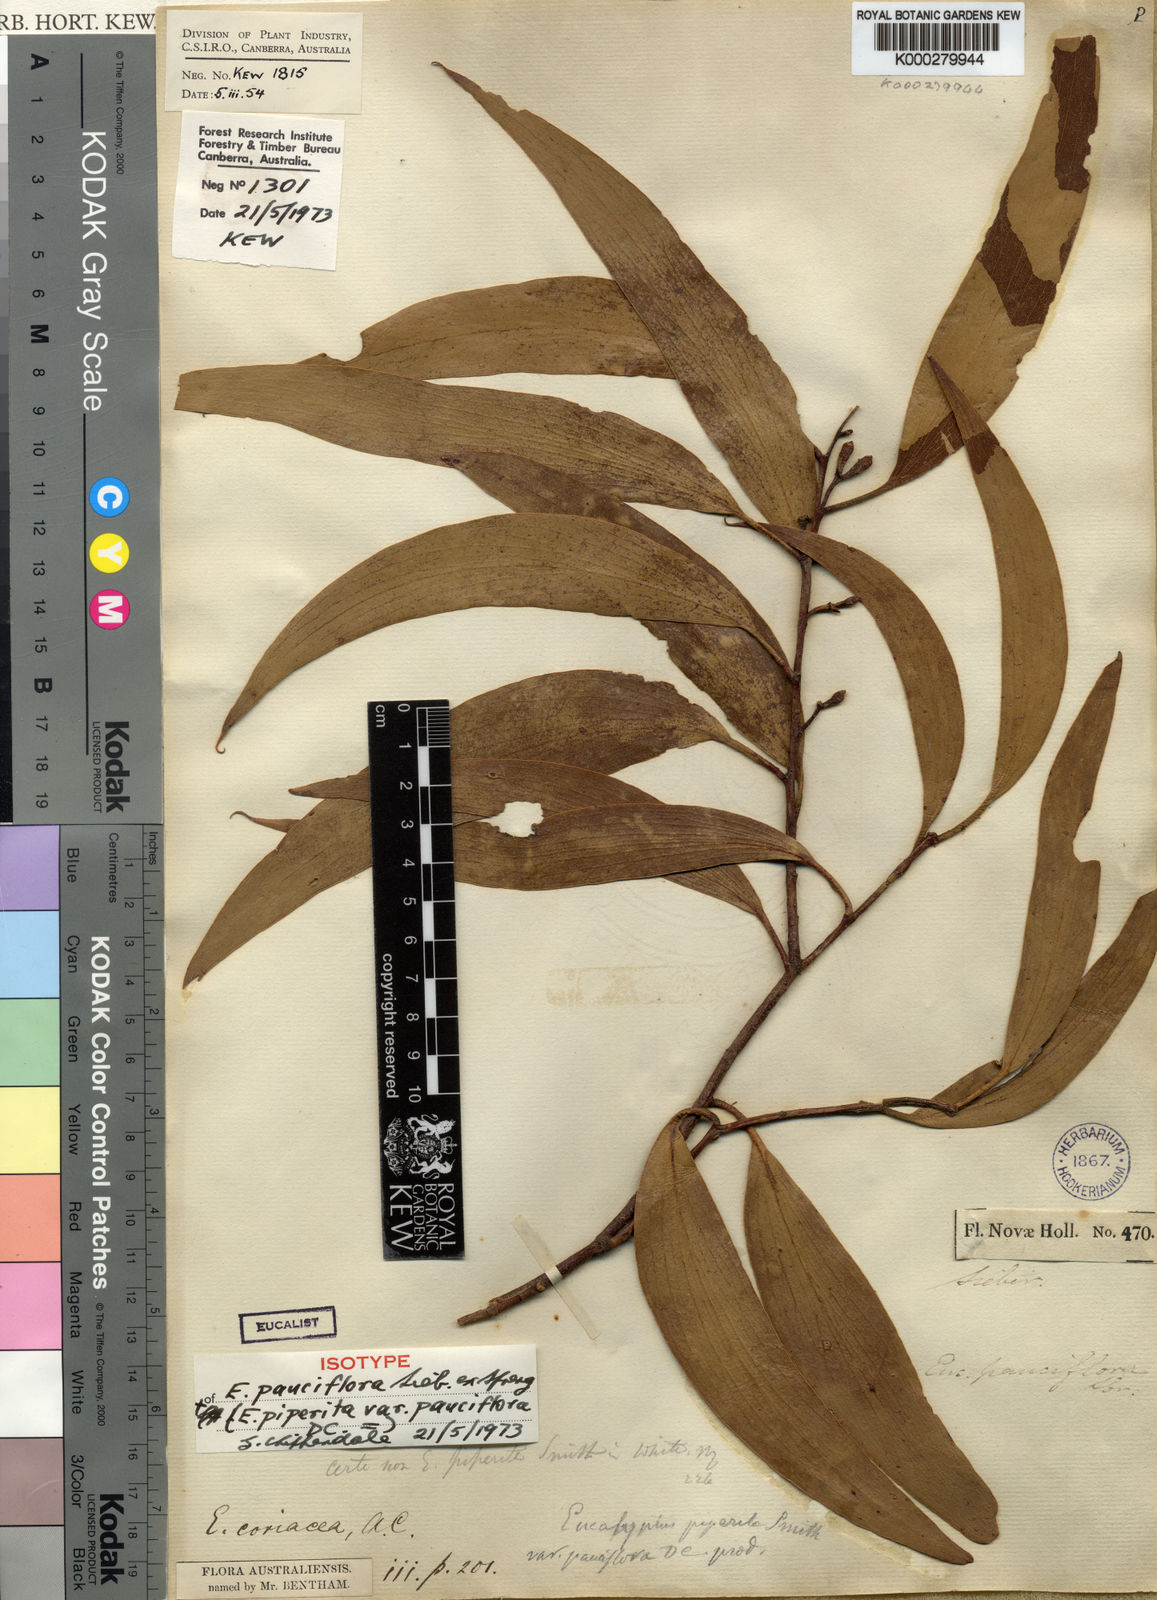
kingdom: Plantae
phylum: Tracheophyta
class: Magnoliopsida
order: Myrtales
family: Myrtaceae
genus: Eucalyptus
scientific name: Eucalyptus pauciflora
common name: Snow gum
